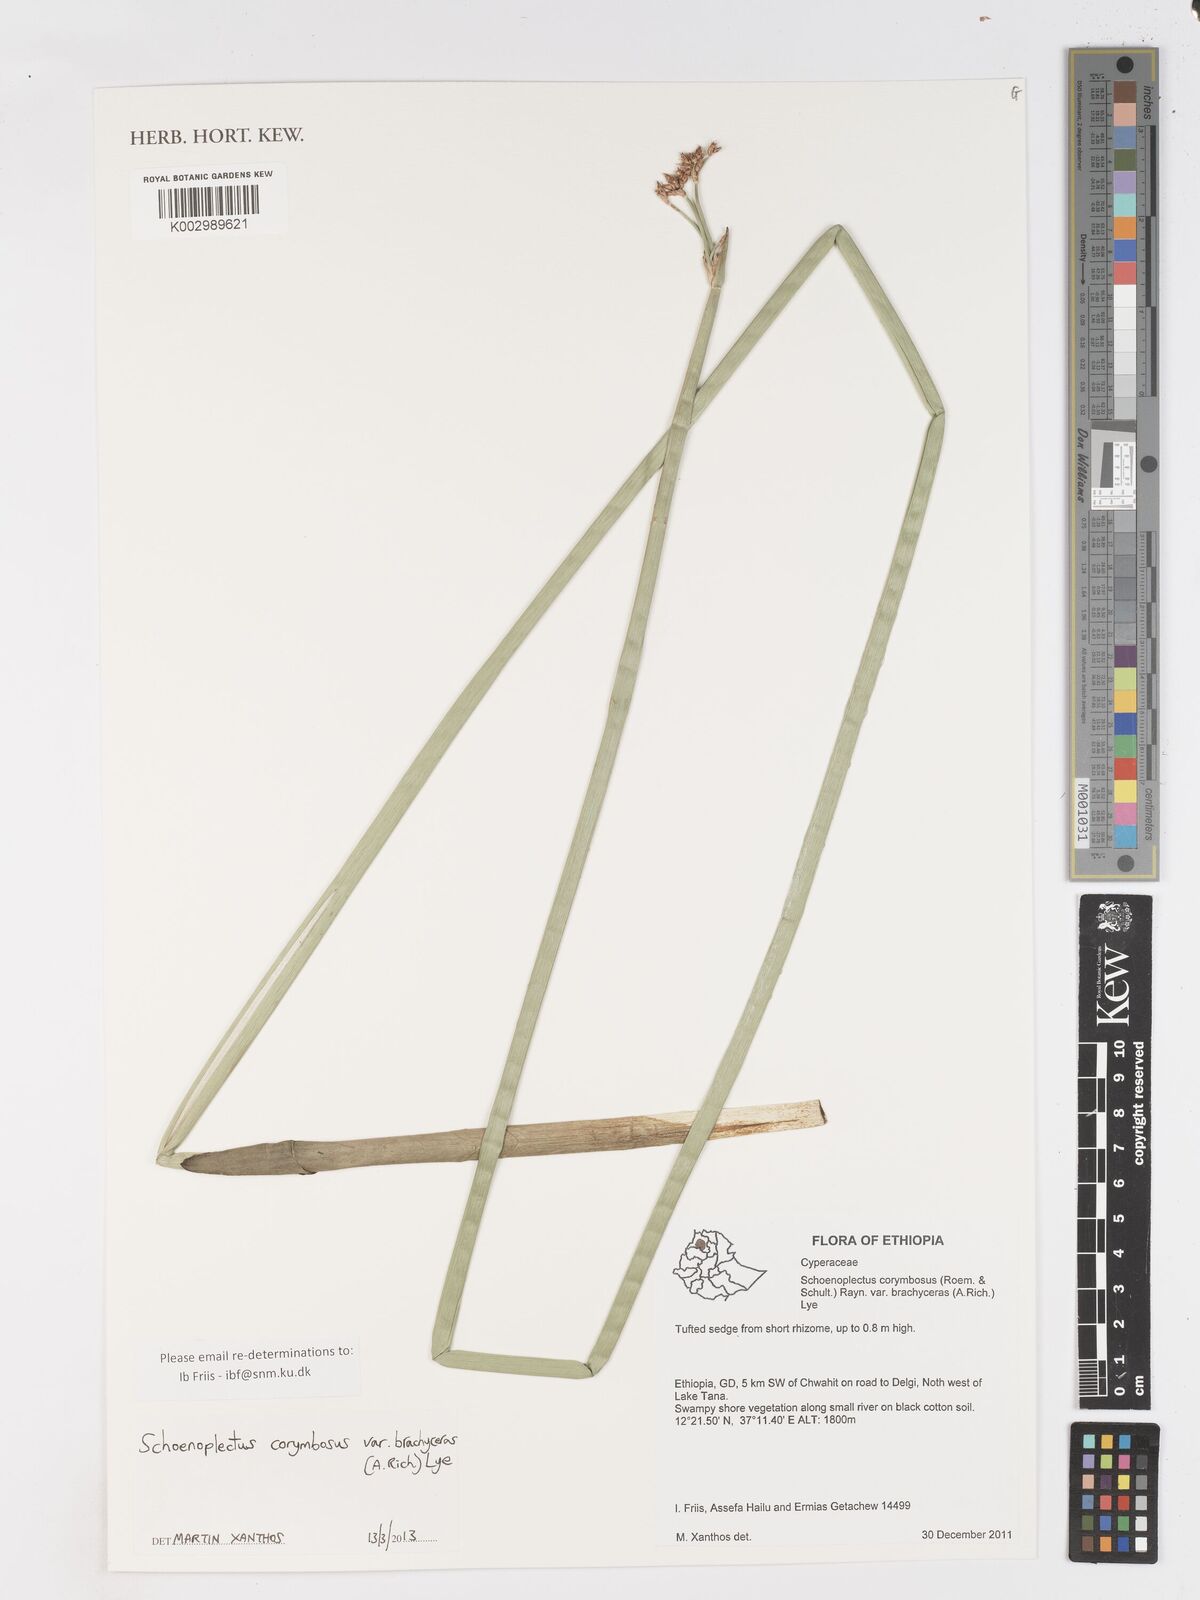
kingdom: Plantae
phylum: Tracheophyta
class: Liliopsida
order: Poales
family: Cyperaceae
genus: Schoenoplectiella
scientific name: Schoenoplectiella brachyceras
